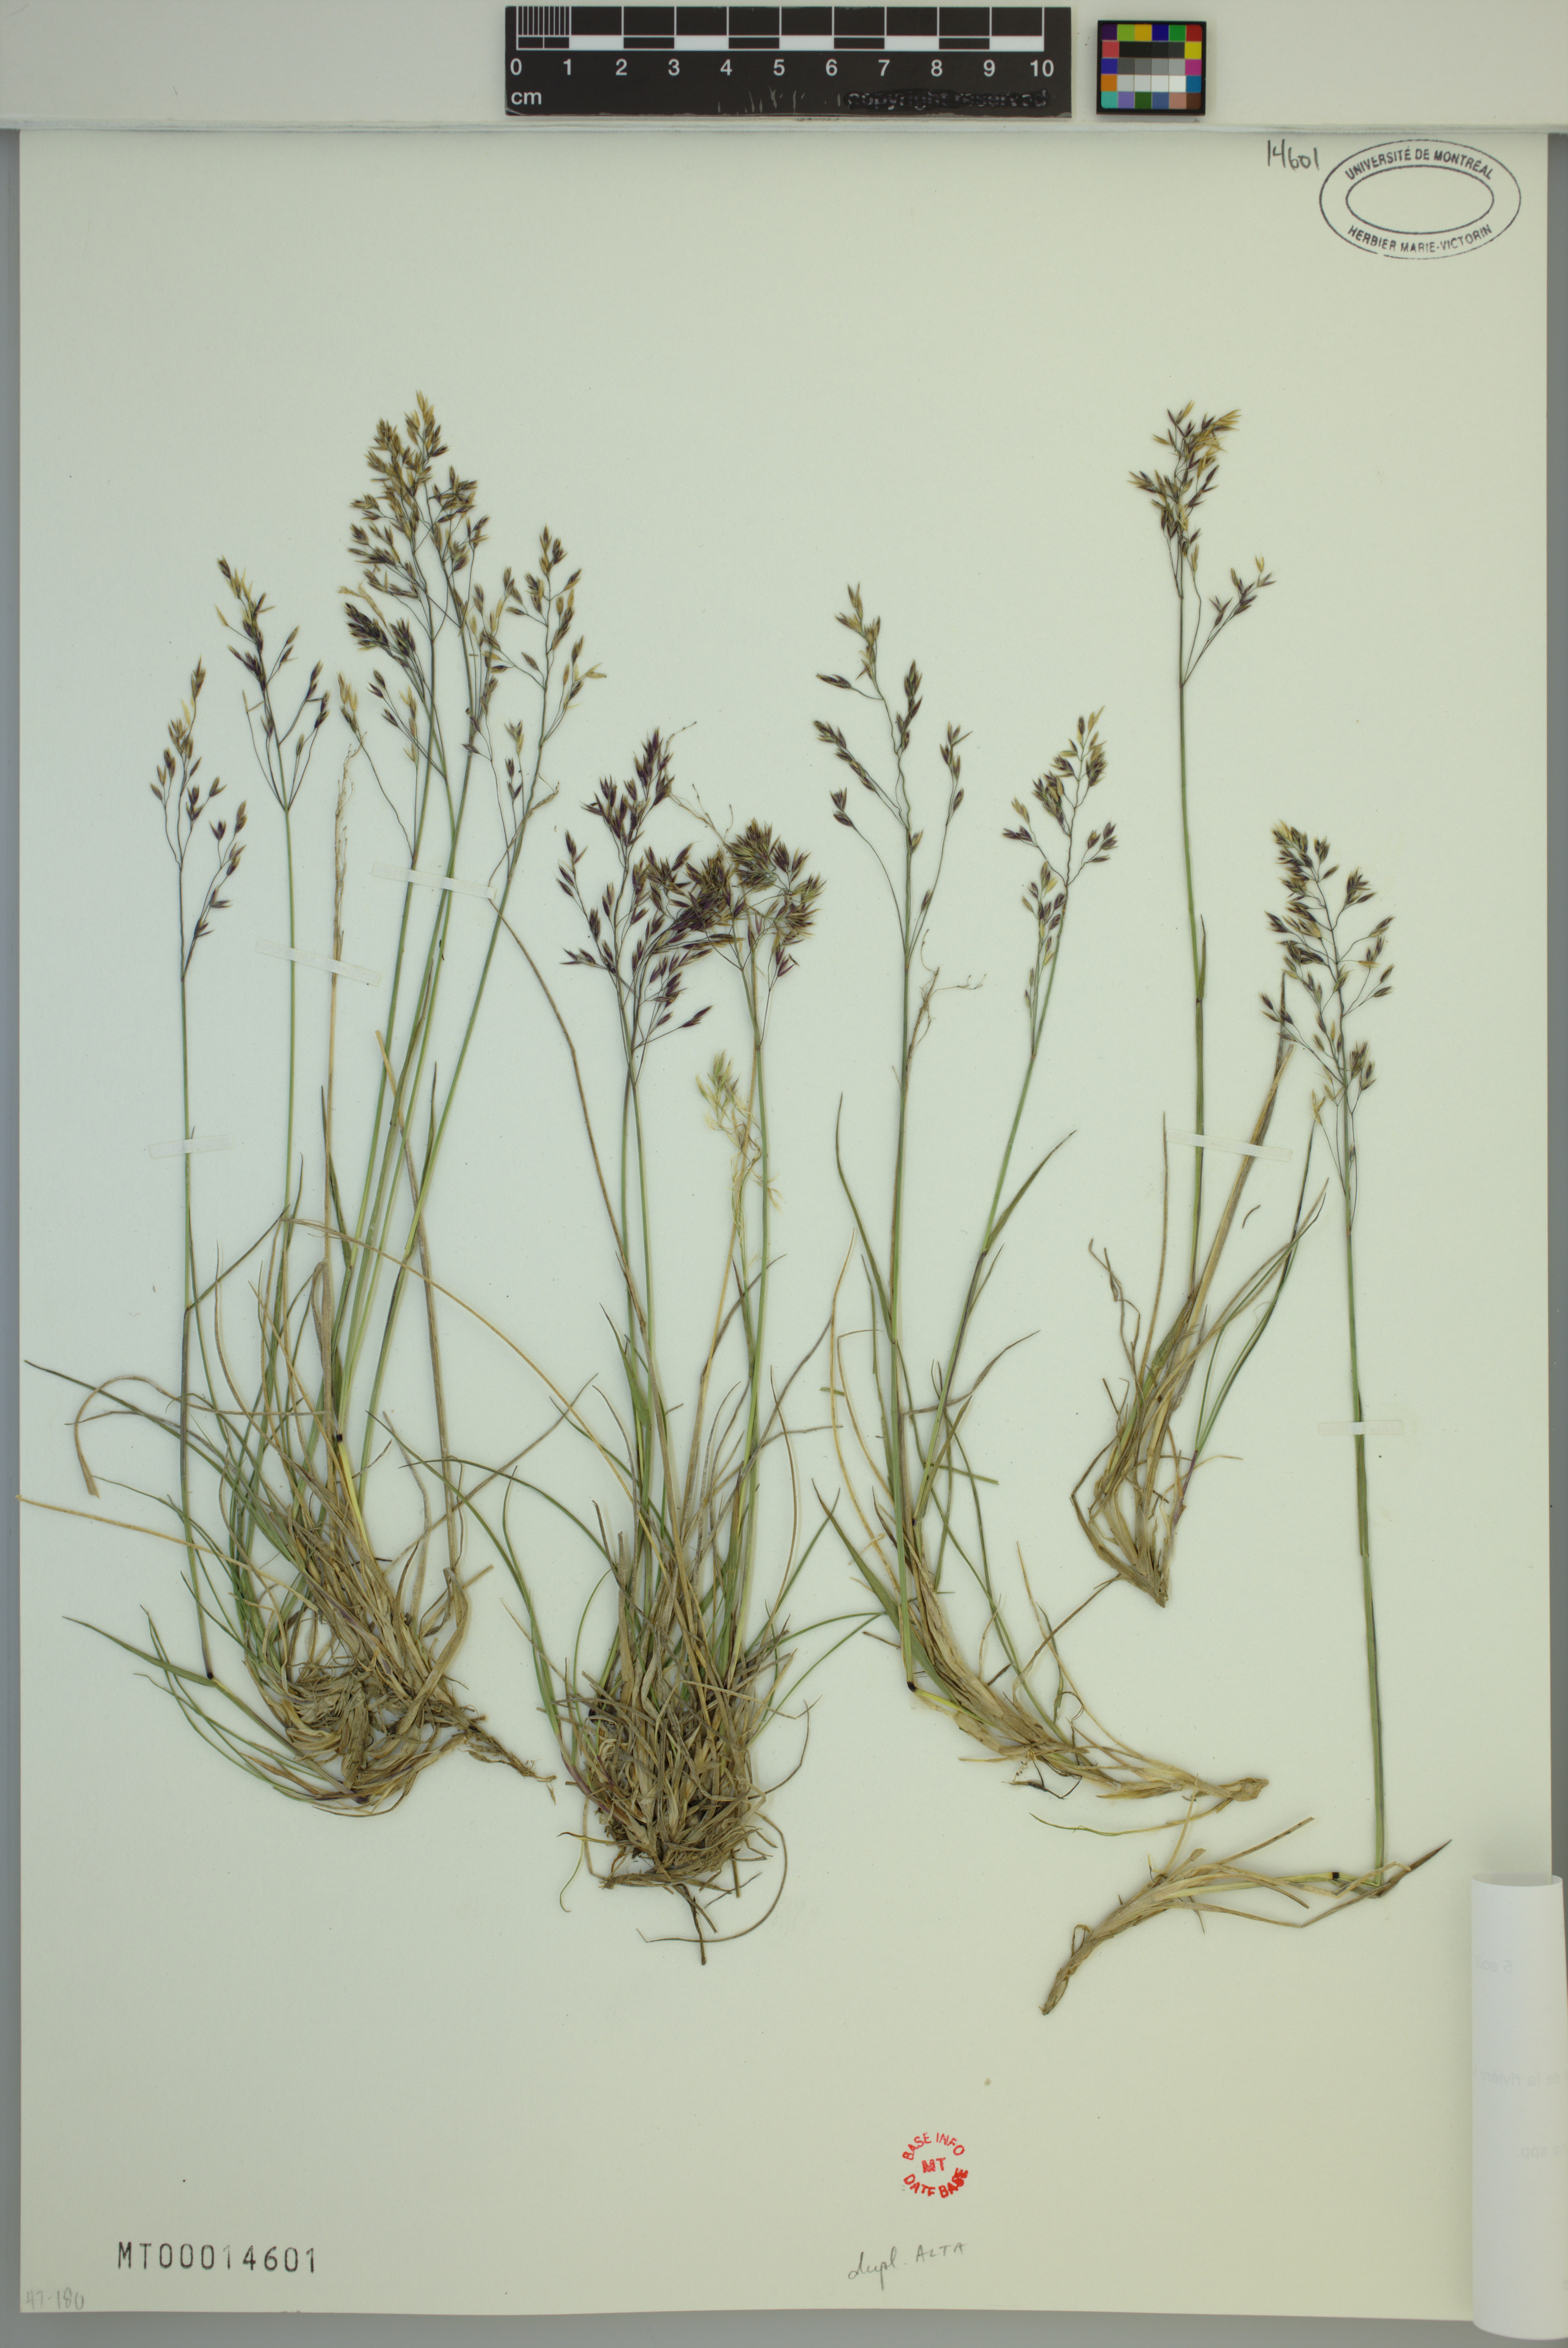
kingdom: Plantae
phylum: Tracheophyta
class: Liliopsida
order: Poales
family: Poaceae
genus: Calamagrostis
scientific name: Calamagrostis deschampsioides
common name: Circumpolar reedgrass
